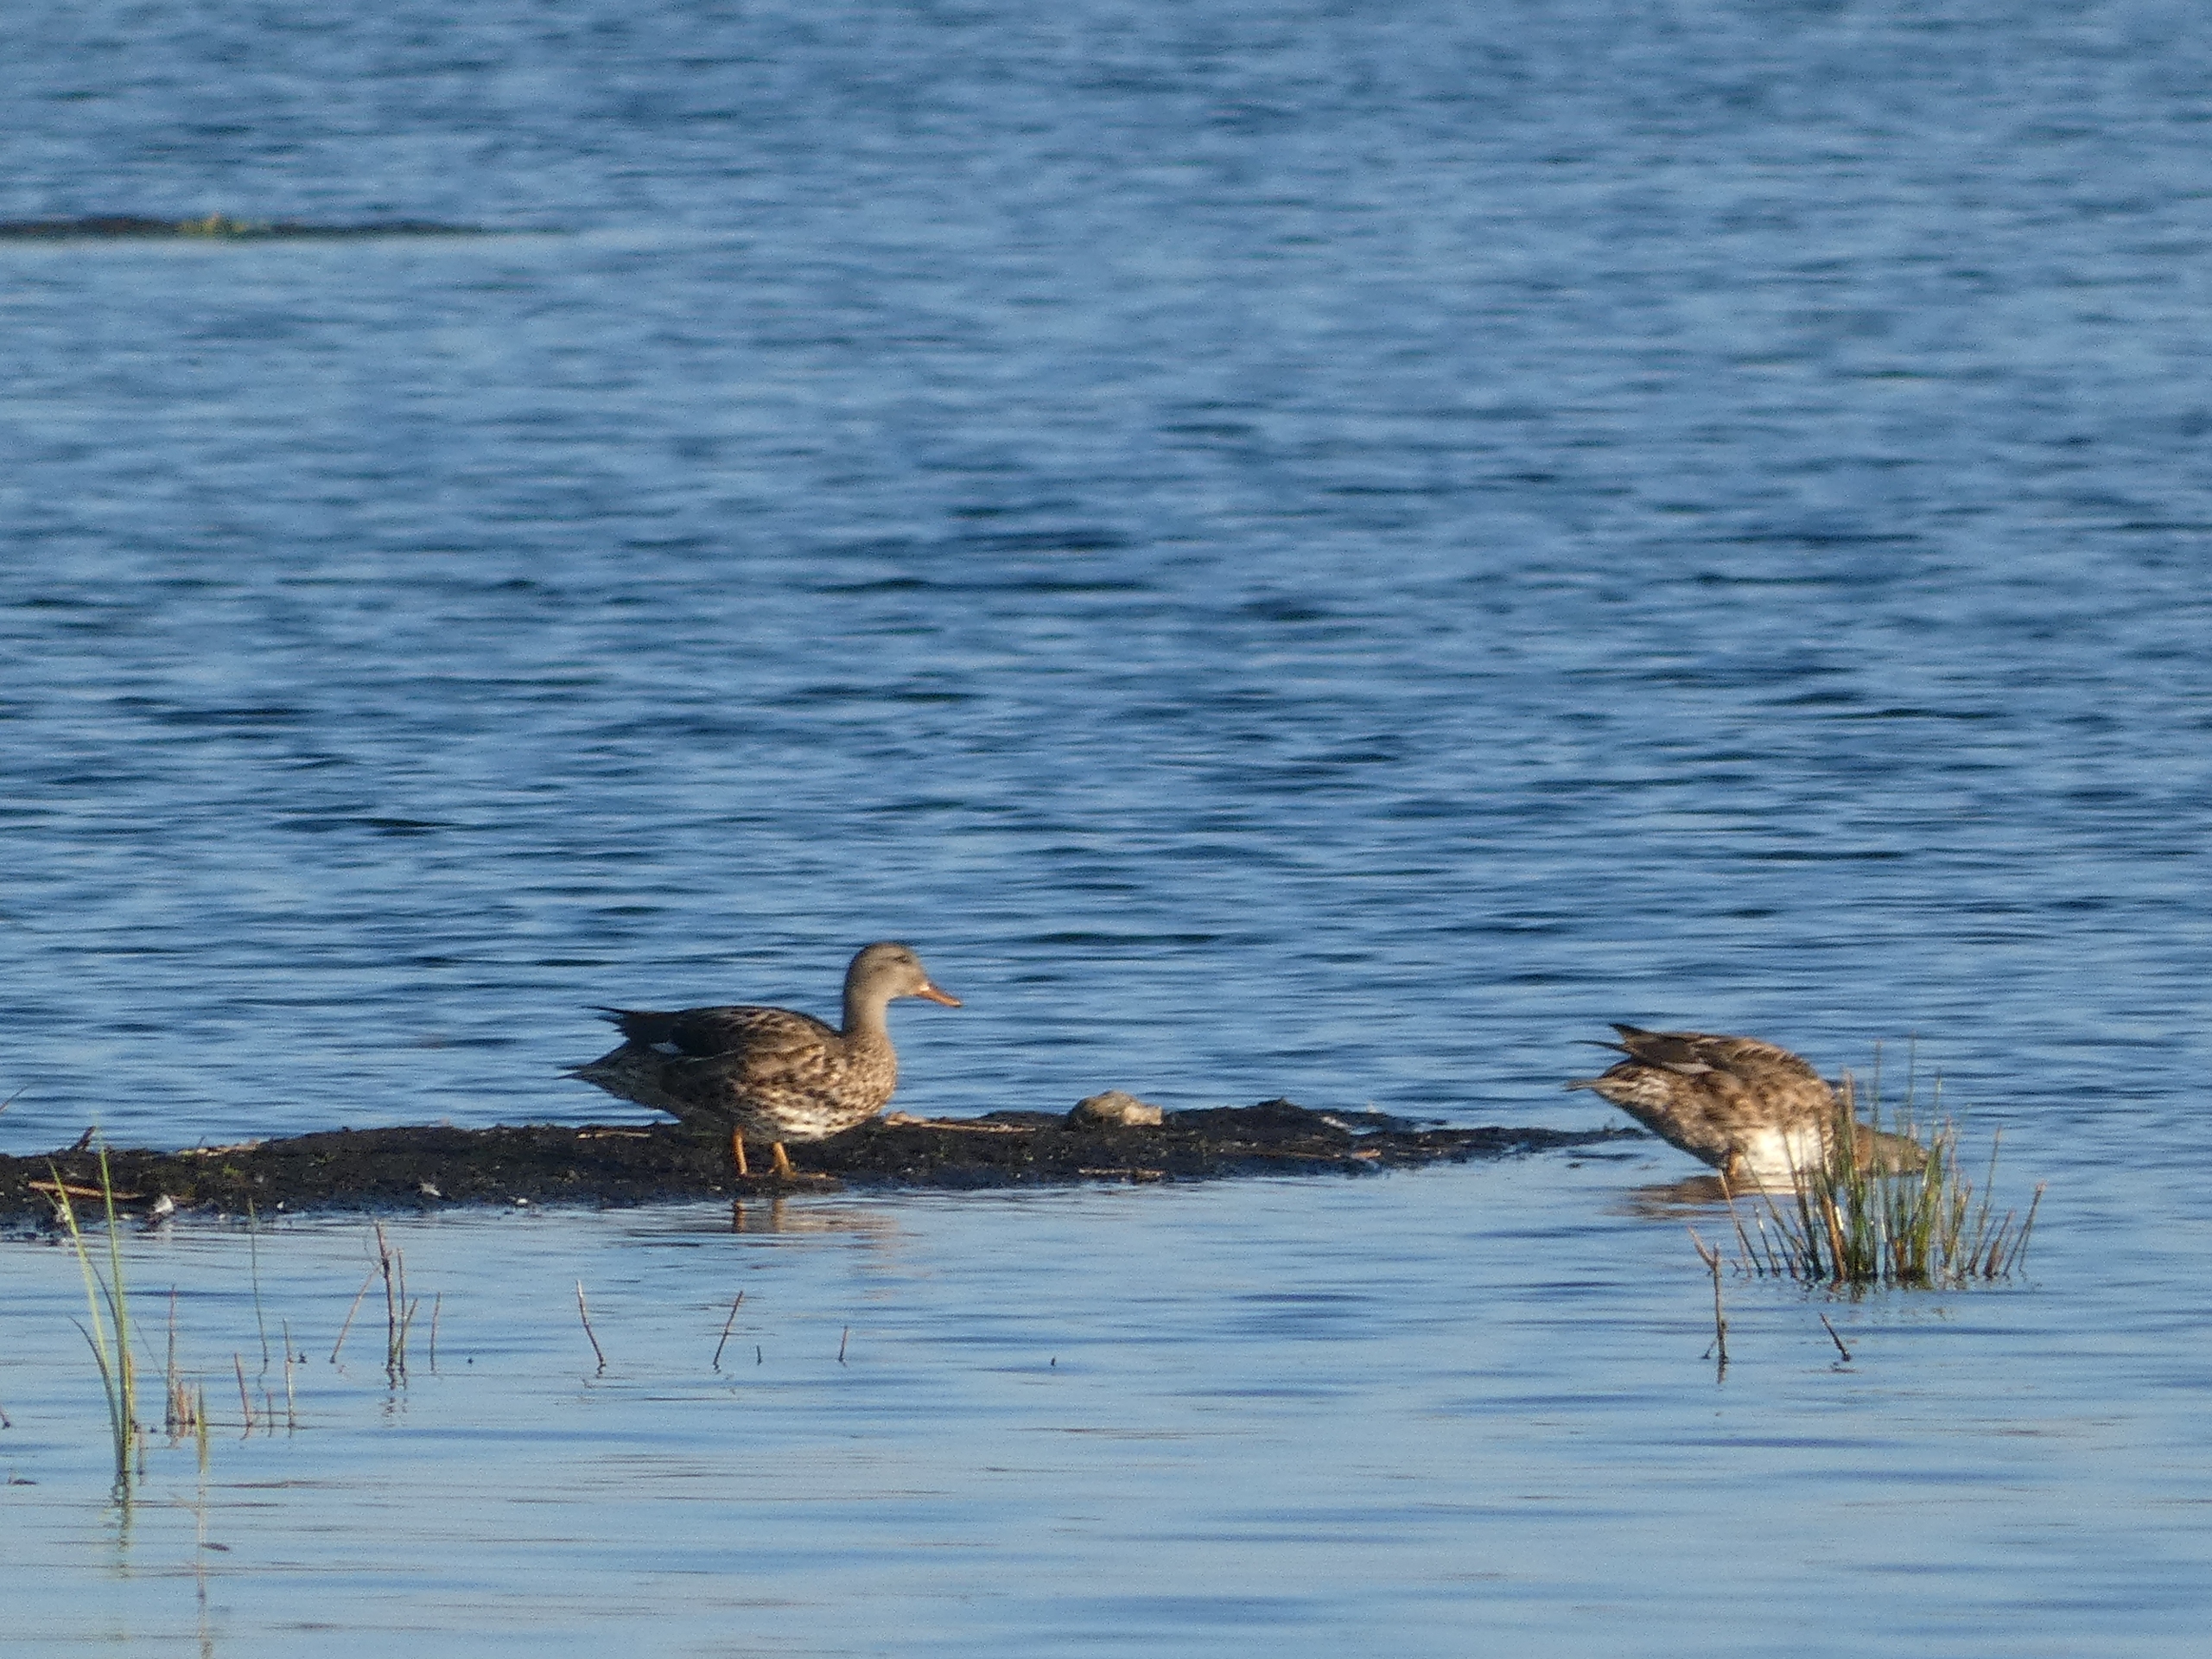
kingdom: Animalia
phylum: Chordata
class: Aves
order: Anseriformes
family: Anatidae
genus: Mareca
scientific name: Mareca strepera
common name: Knarand
